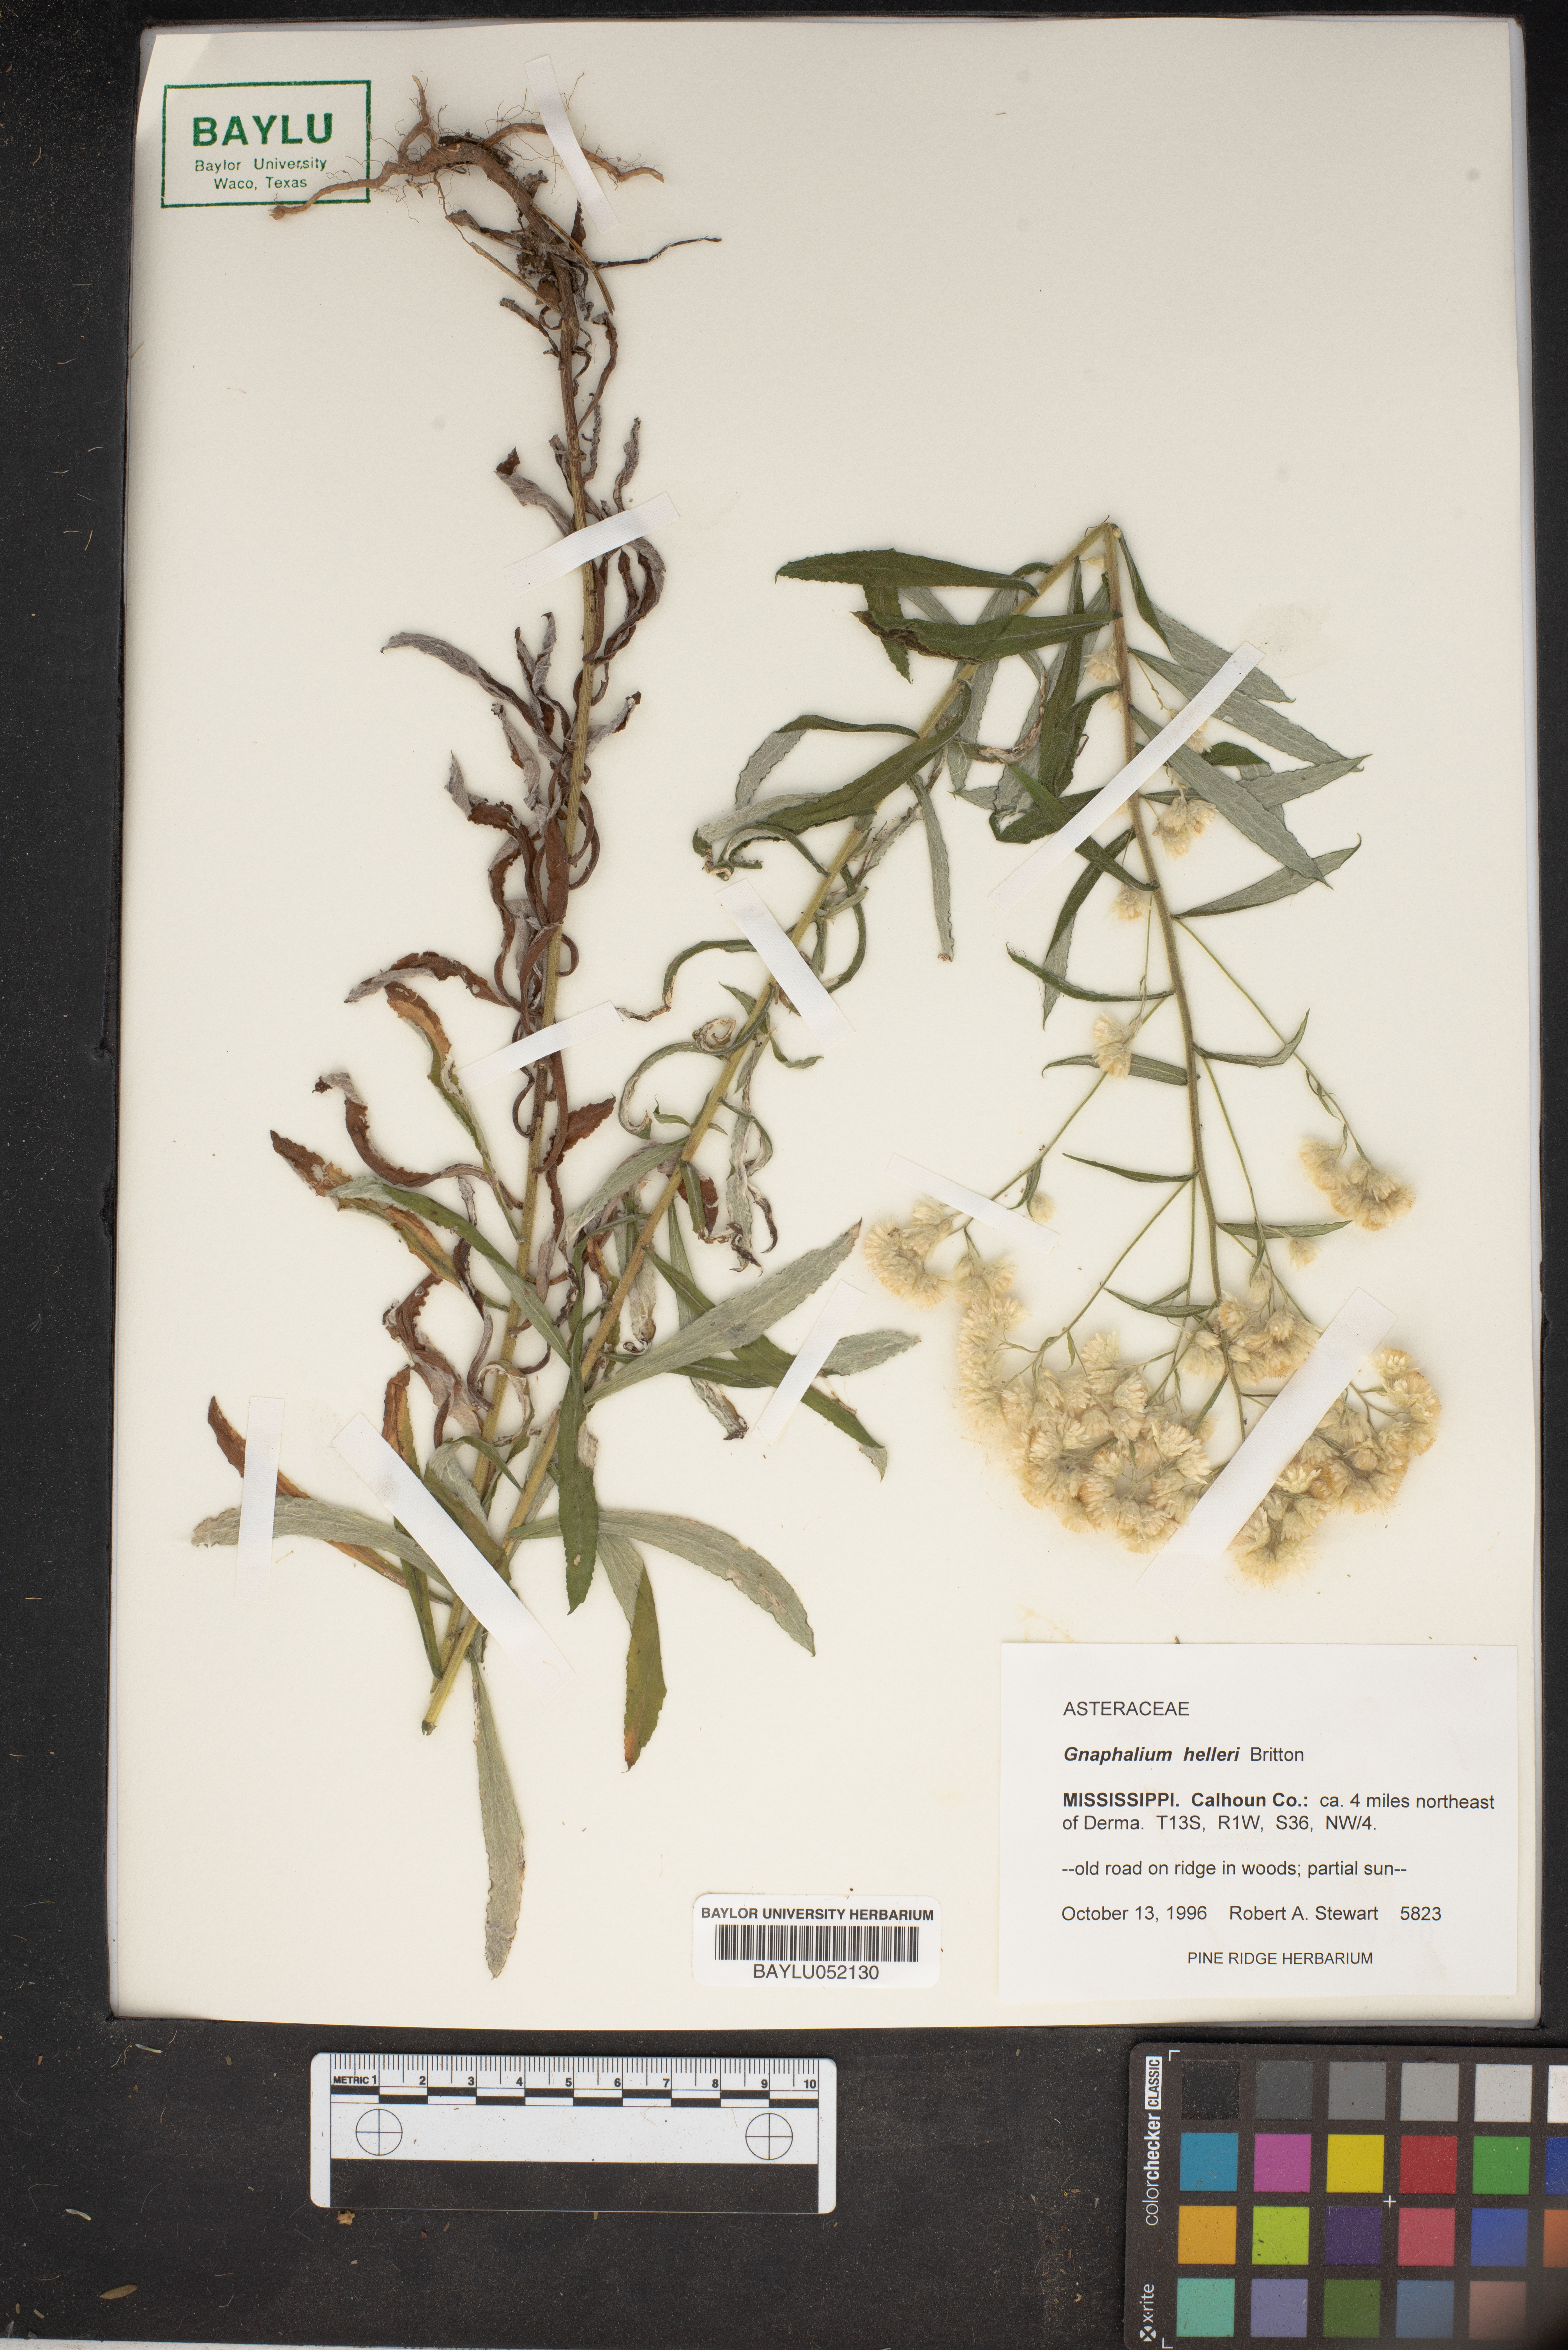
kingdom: Plantae
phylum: Tracheophyta
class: Magnoliopsida
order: Asterales
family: Asteraceae
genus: Pseudognaphalium
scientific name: Pseudognaphalium helleri
